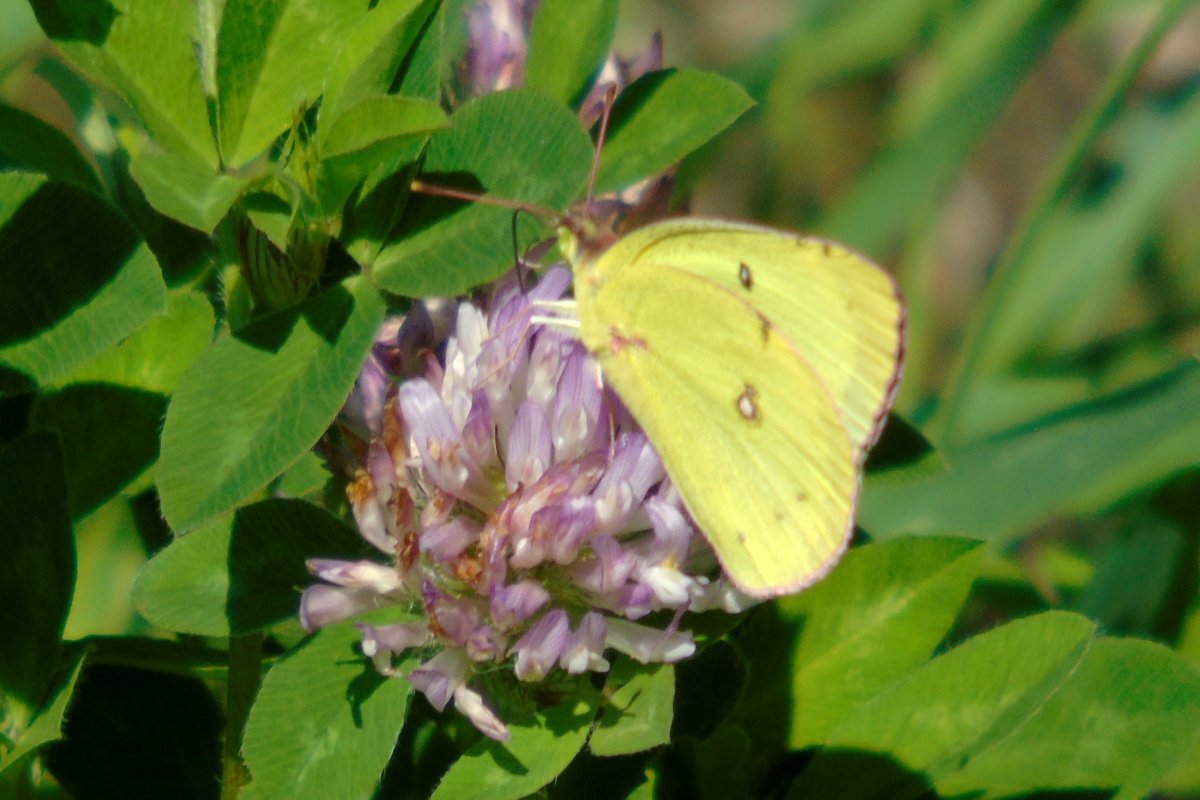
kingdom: Animalia
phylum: Arthropoda
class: Insecta
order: Lepidoptera
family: Pieridae
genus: Colias
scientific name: Colias philodice
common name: Clouded Sulphur
